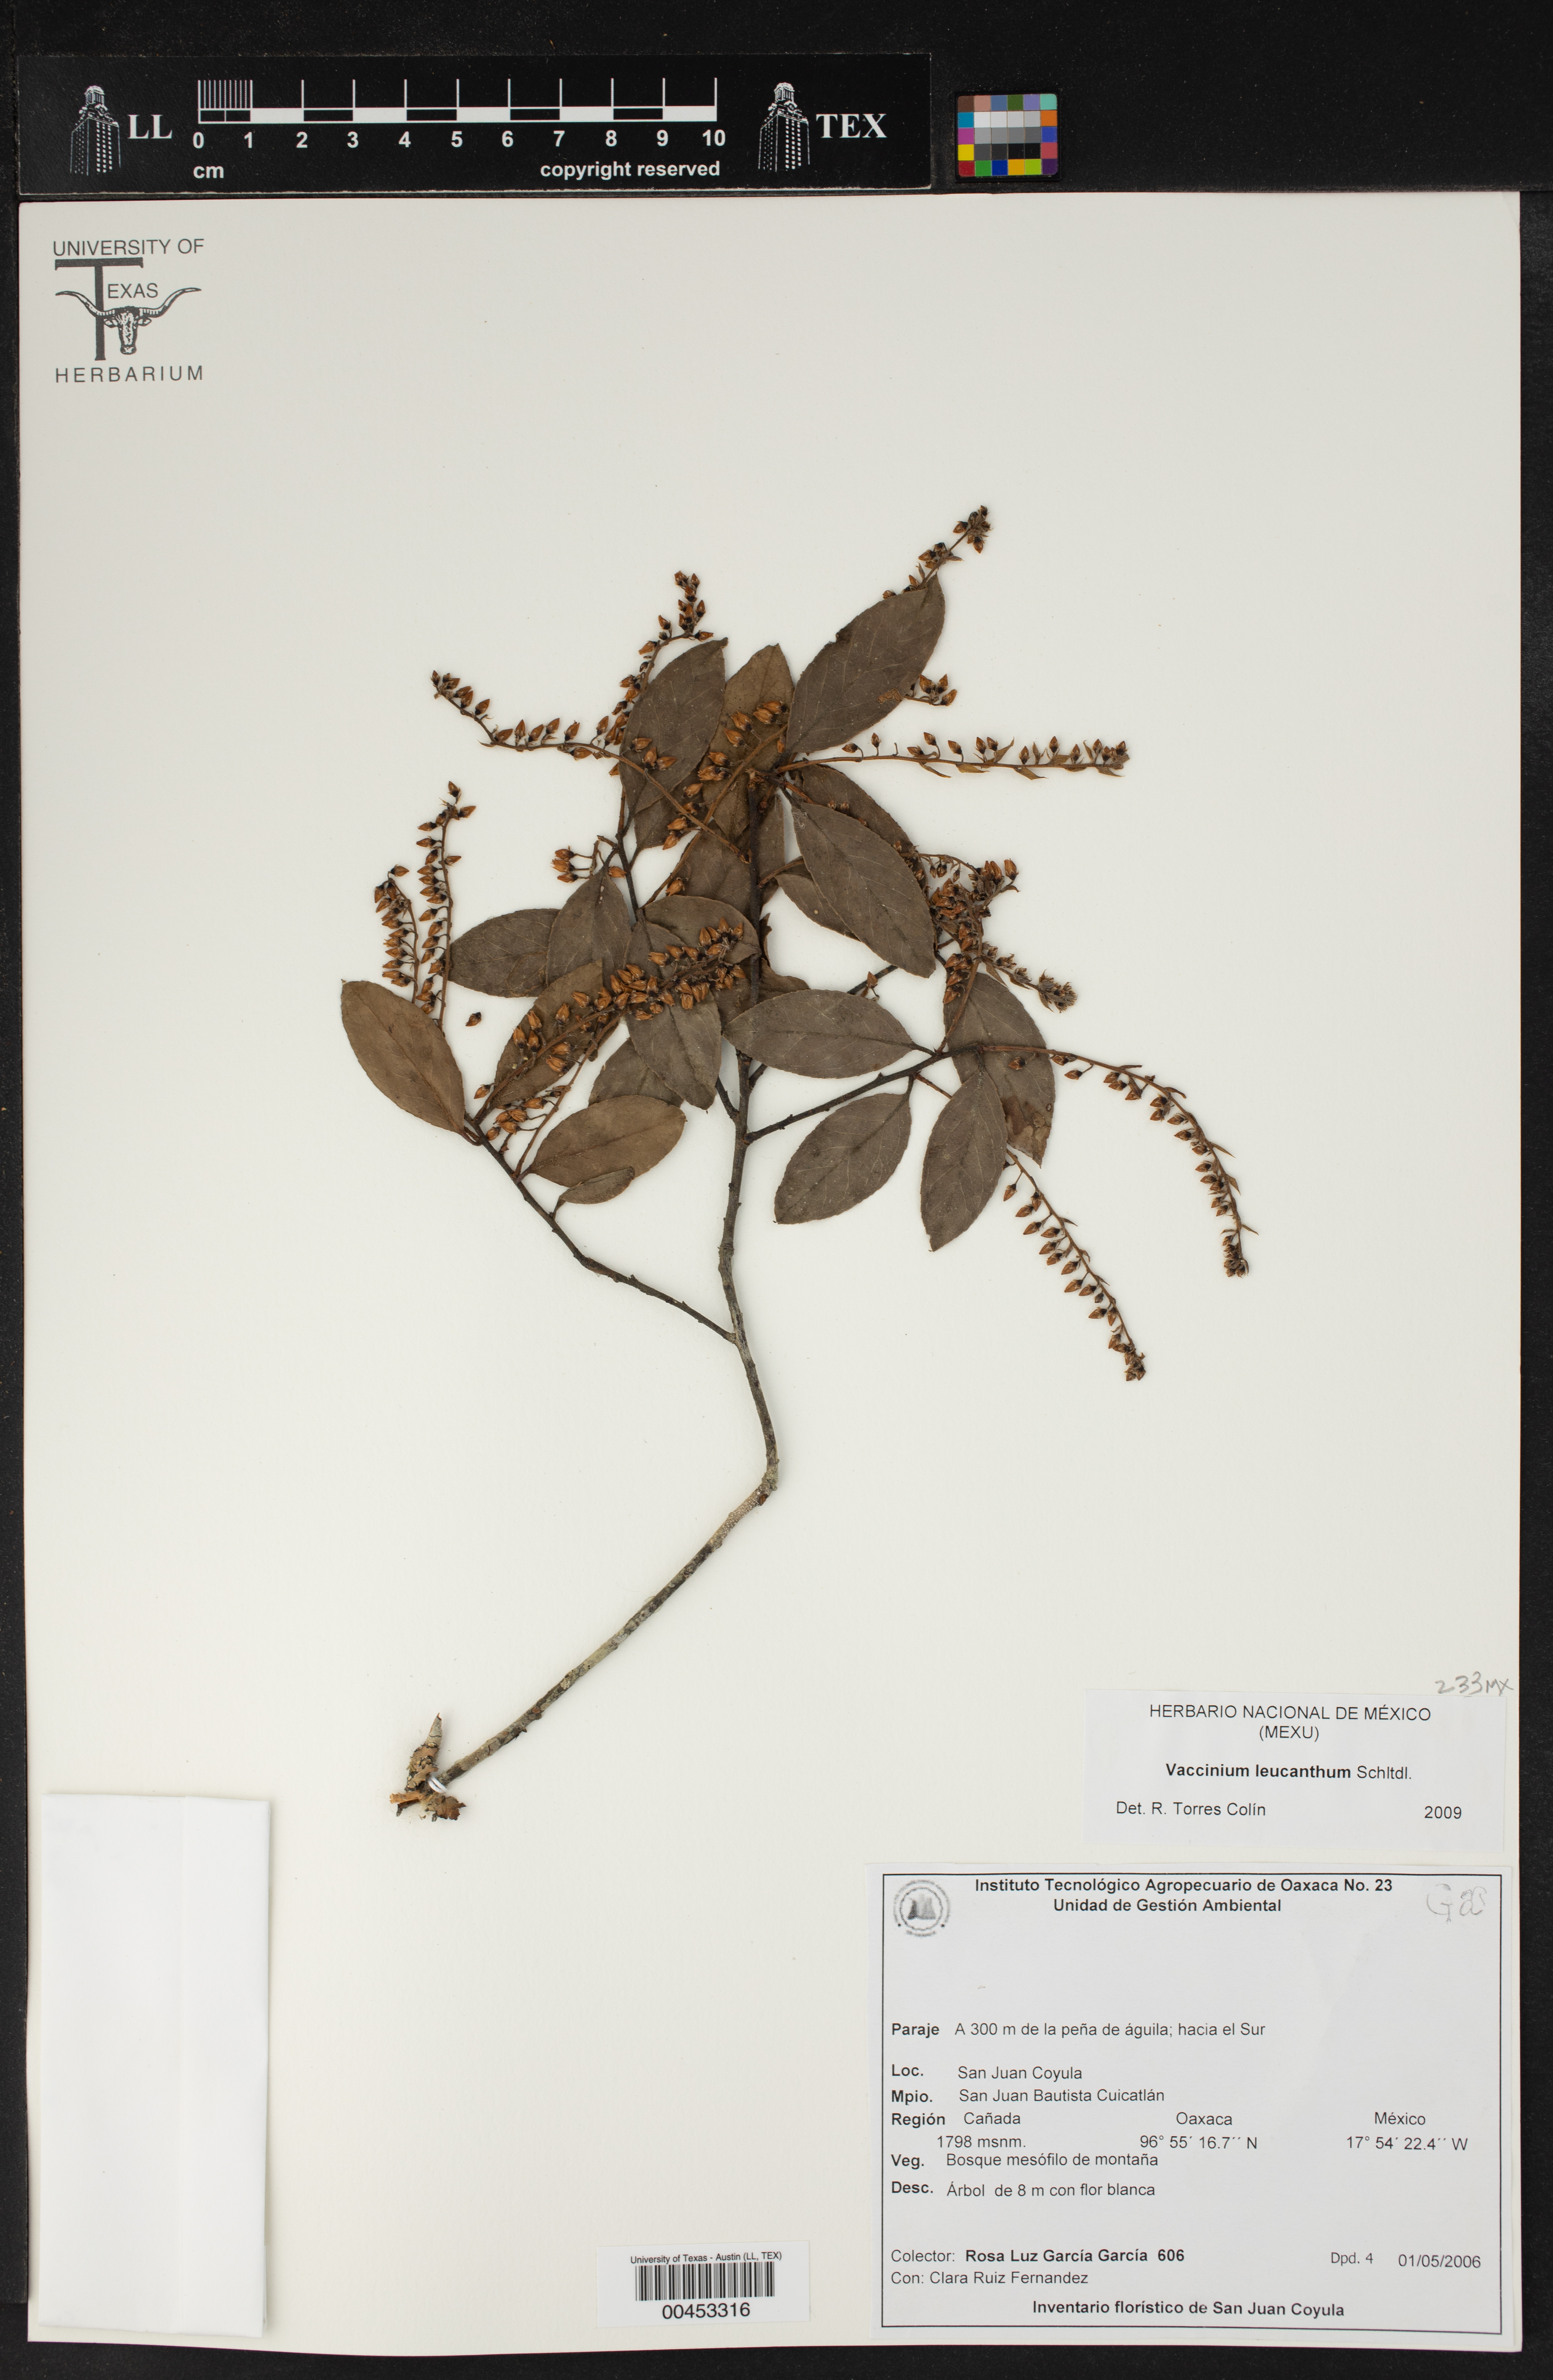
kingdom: Plantae
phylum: Tracheophyta
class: Magnoliopsida
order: Ericales
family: Ericaceae
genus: Vaccinium
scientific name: Vaccinium leucanthum
